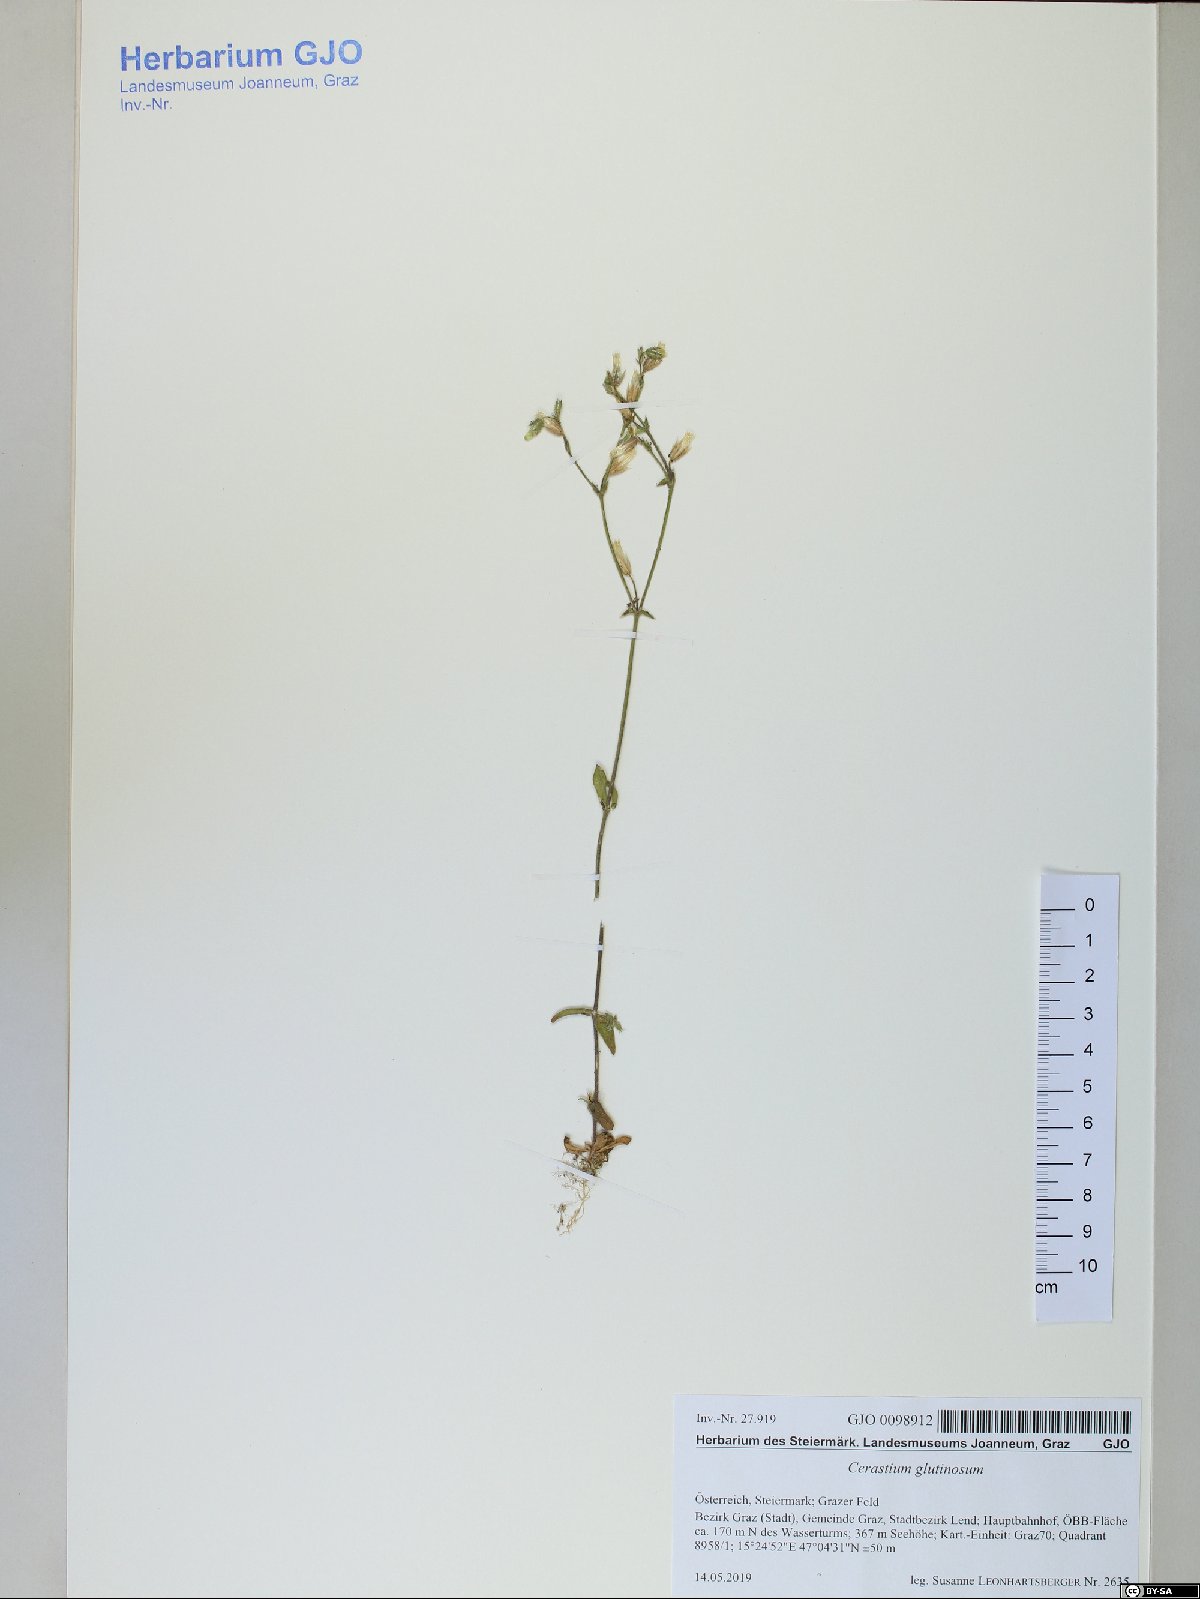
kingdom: Plantae
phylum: Tracheophyta
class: Magnoliopsida
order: Caryophyllales
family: Caryophyllaceae
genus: Cerastium
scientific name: Cerastium glutinosum
